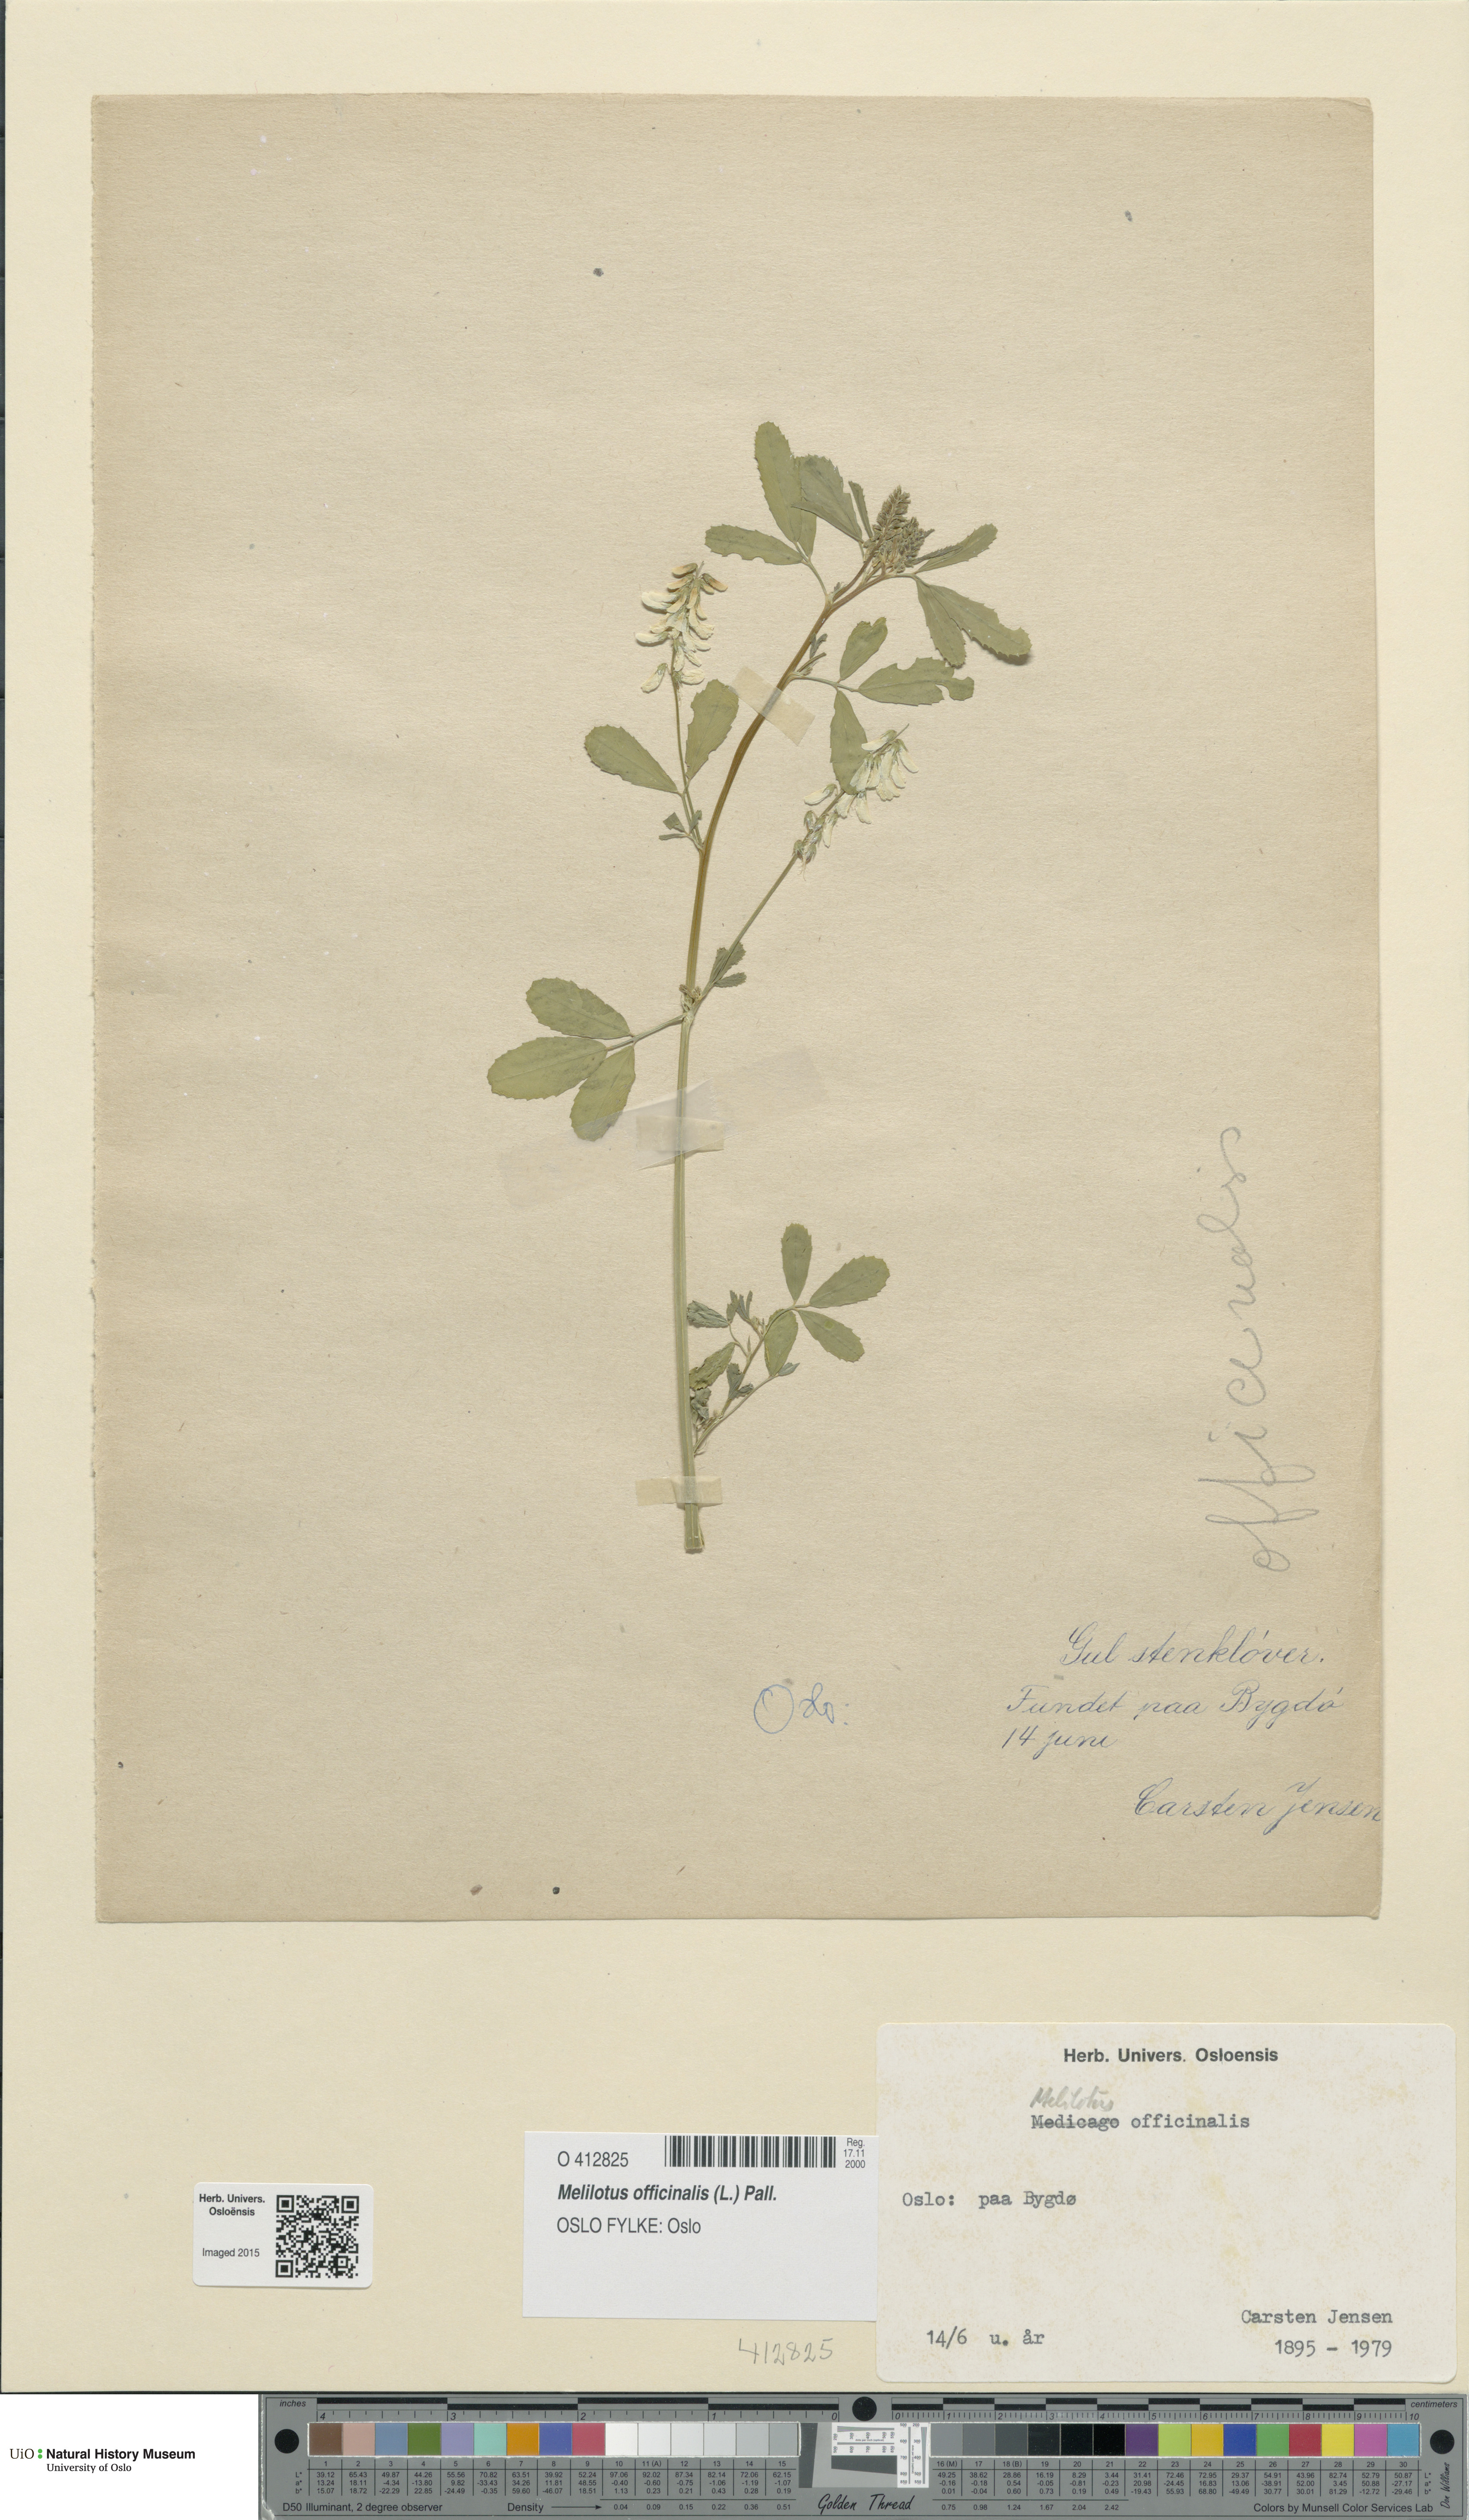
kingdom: Plantae
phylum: Tracheophyta
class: Magnoliopsida
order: Fabales
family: Fabaceae
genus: Melilotus
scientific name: Melilotus officinalis
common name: Sweetclover
